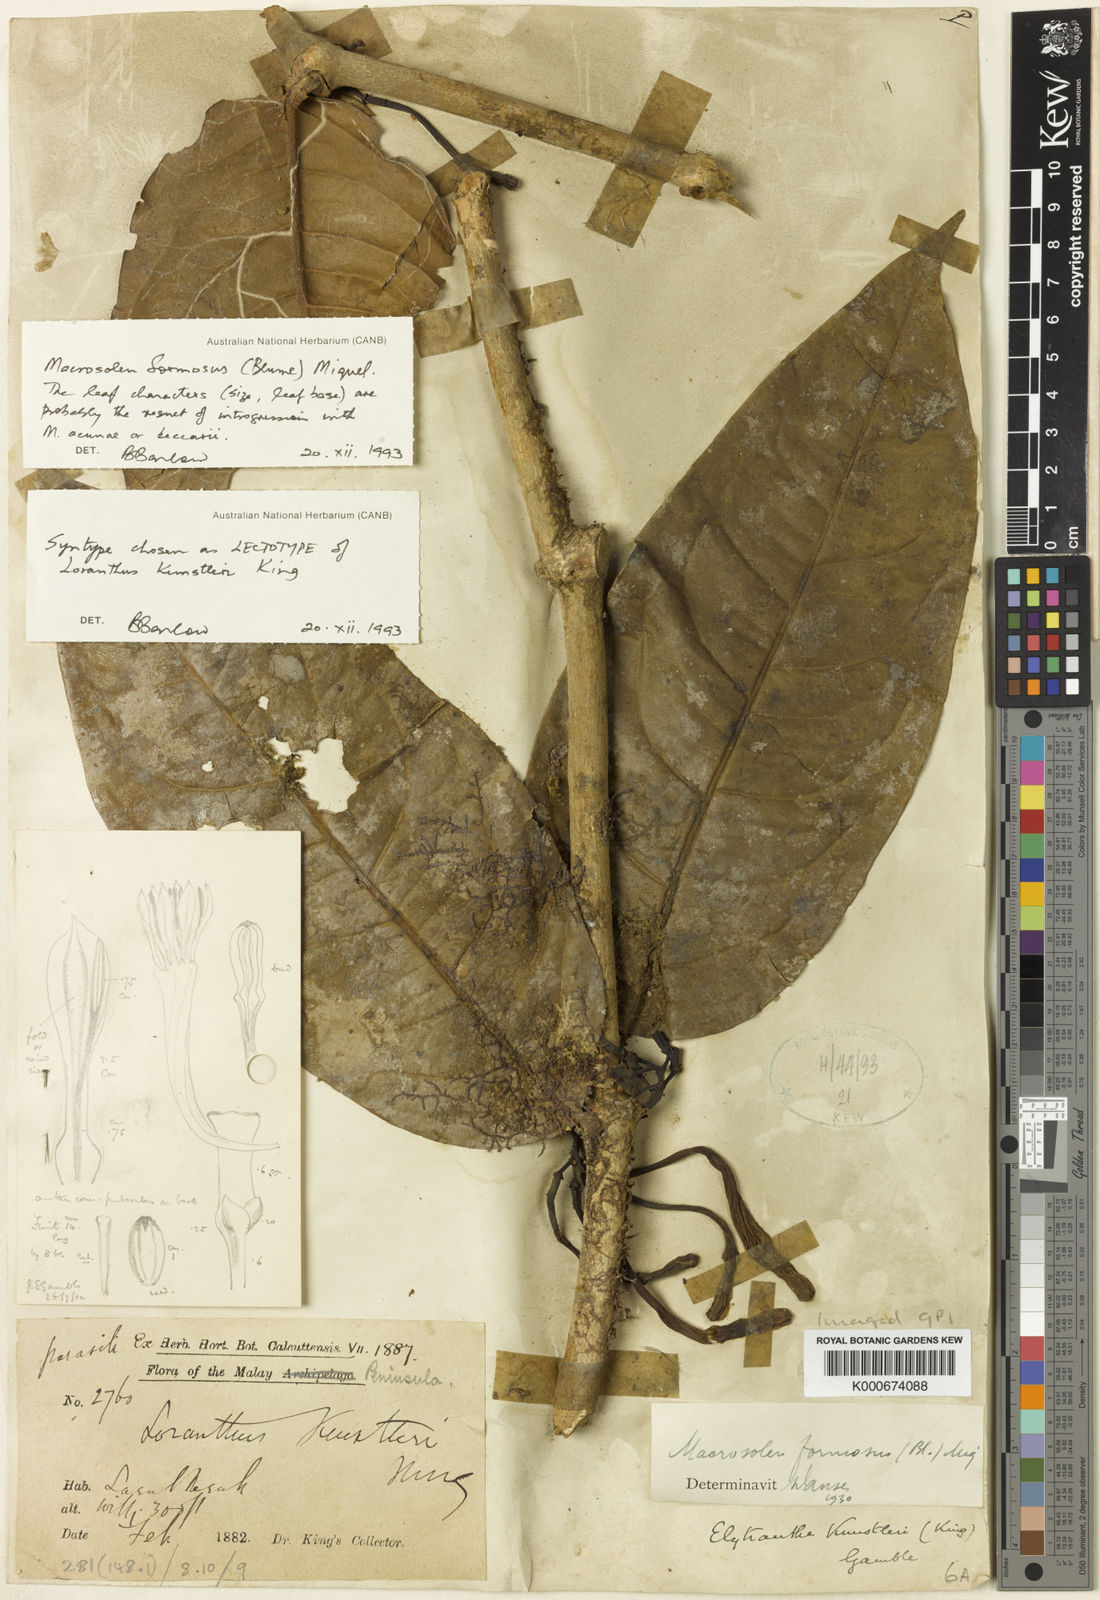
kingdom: Plantae
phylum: Tracheophyta
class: Magnoliopsida
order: Santalales
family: Loranthaceae
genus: Macrosolen
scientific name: Macrosolen formosus
